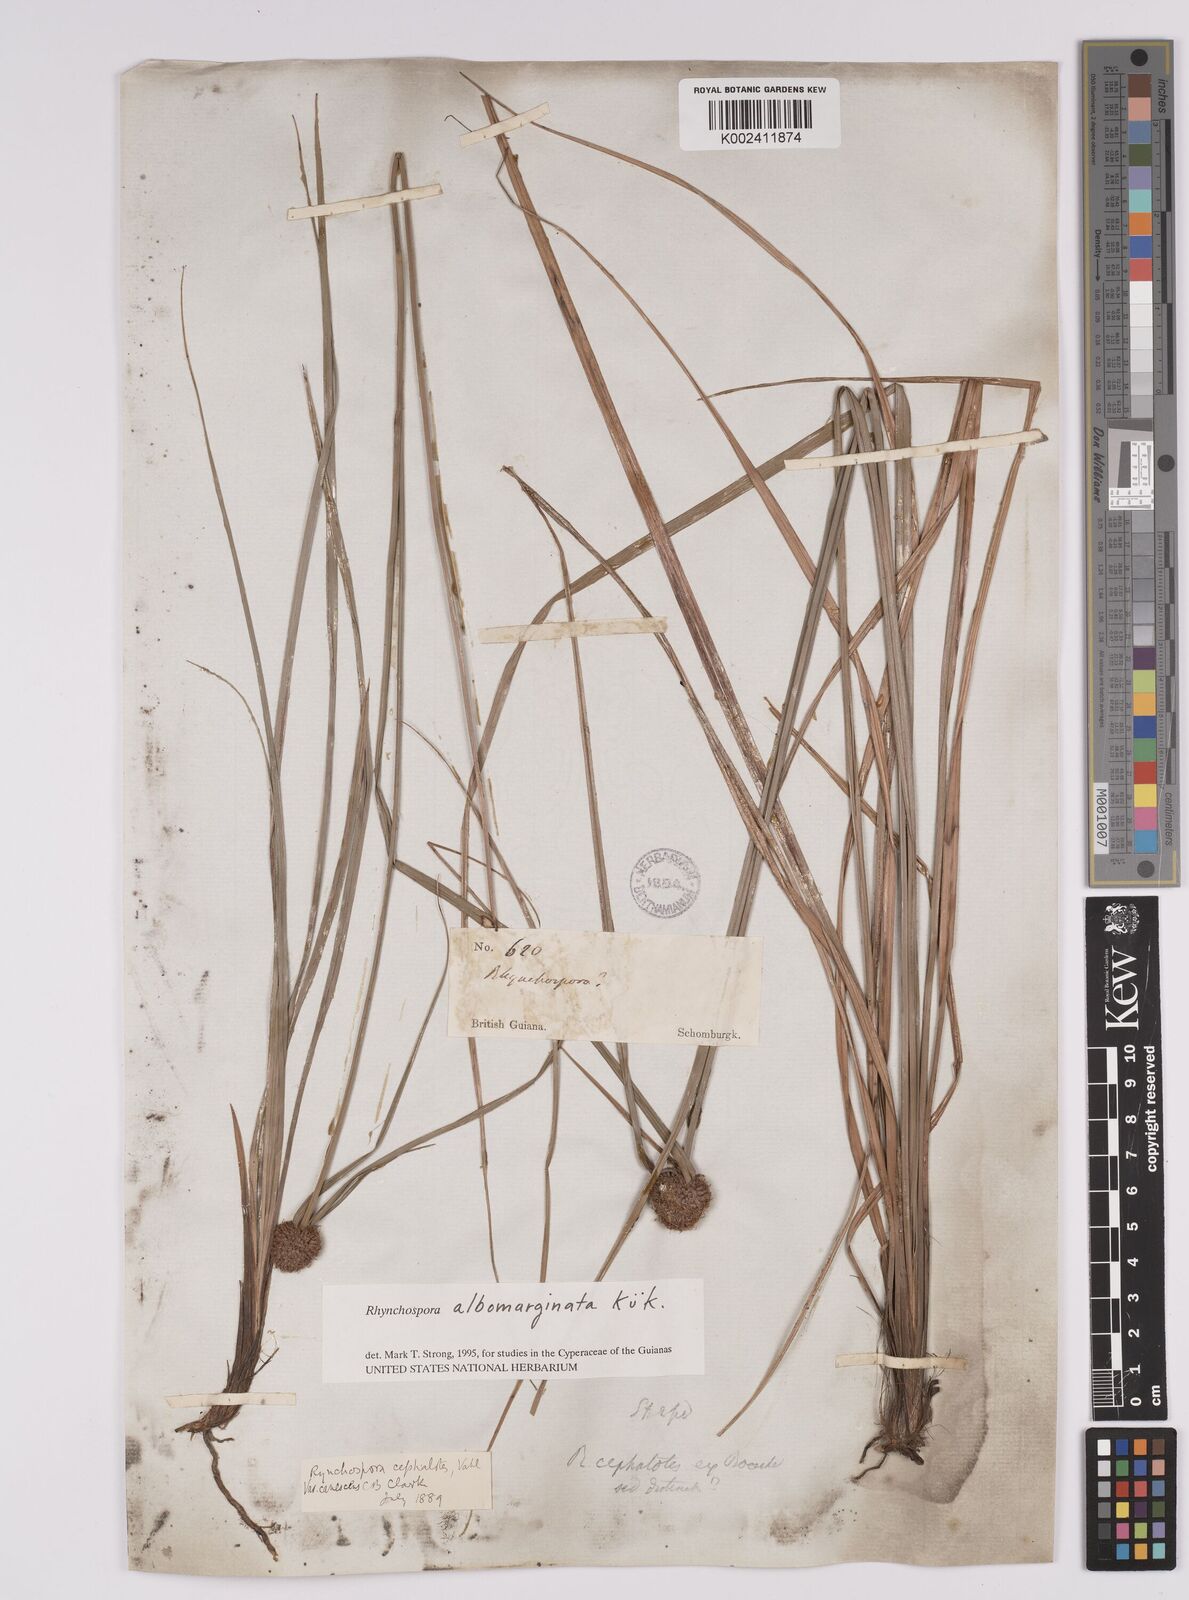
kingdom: Plantae
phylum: Tracheophyta
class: Liliopsida
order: Poales
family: Cyperaceae
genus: Rhynchospora
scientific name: Rhynchospora albomarginata
